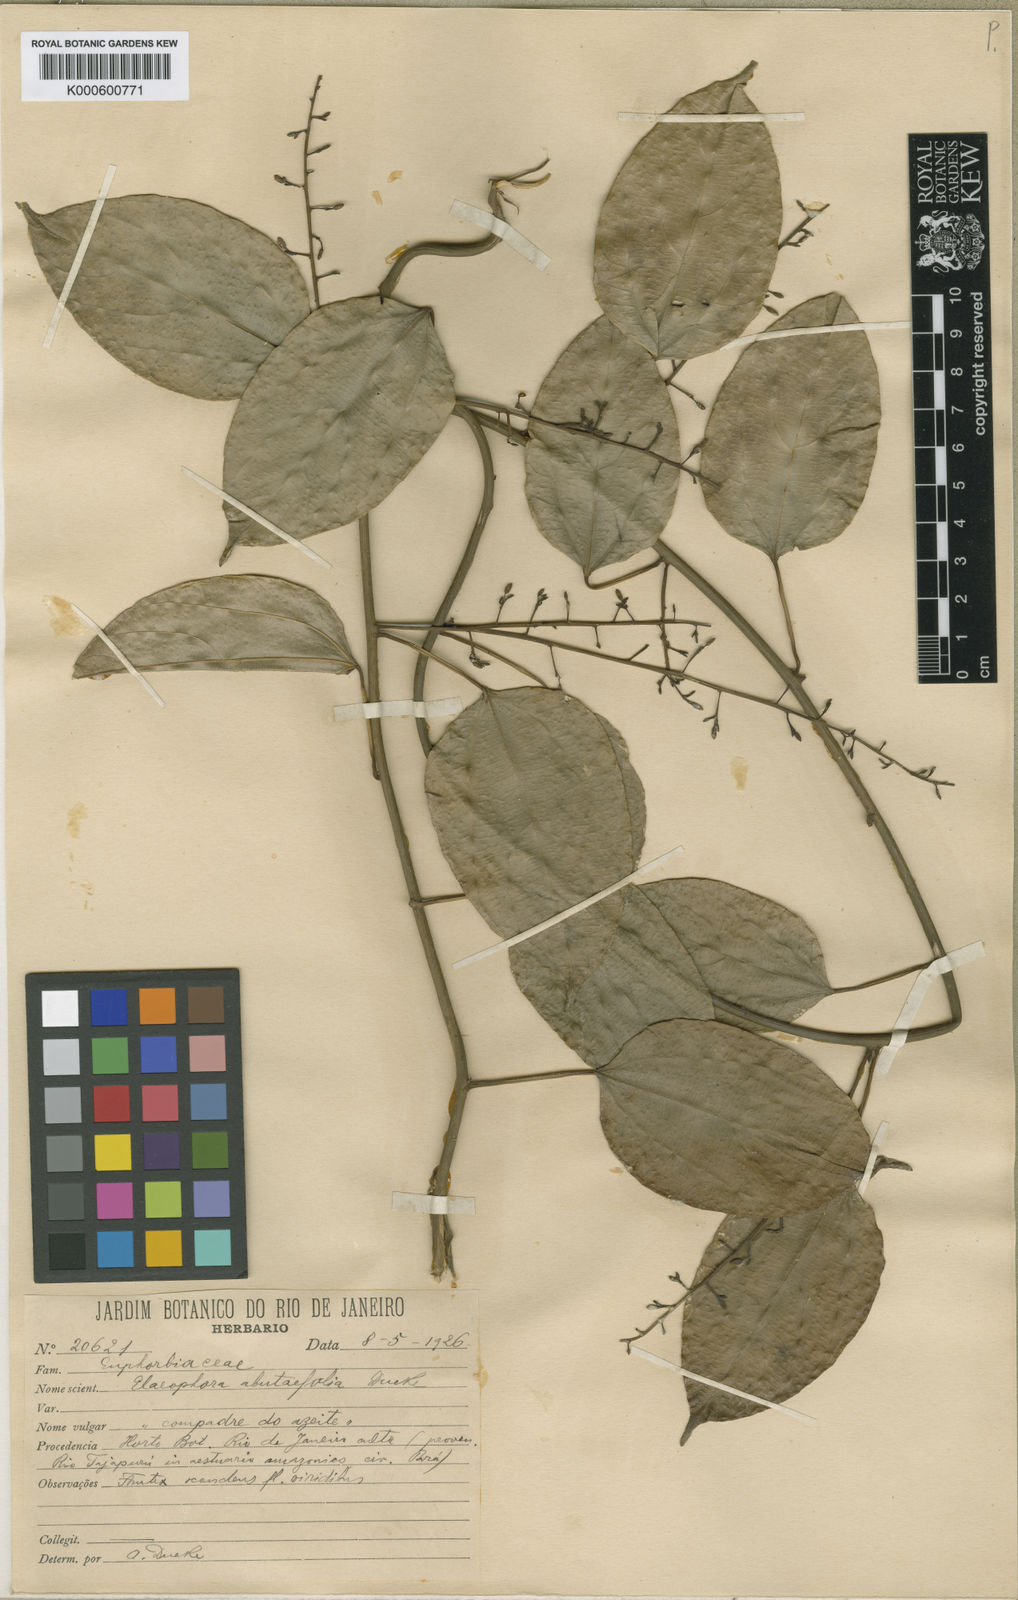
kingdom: Plantae
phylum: Tracheophyta
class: Magnoliopsida
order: Malpighiales
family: Euphorbiaceae
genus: Plukenetia
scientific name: Plukenetia polyadenia
